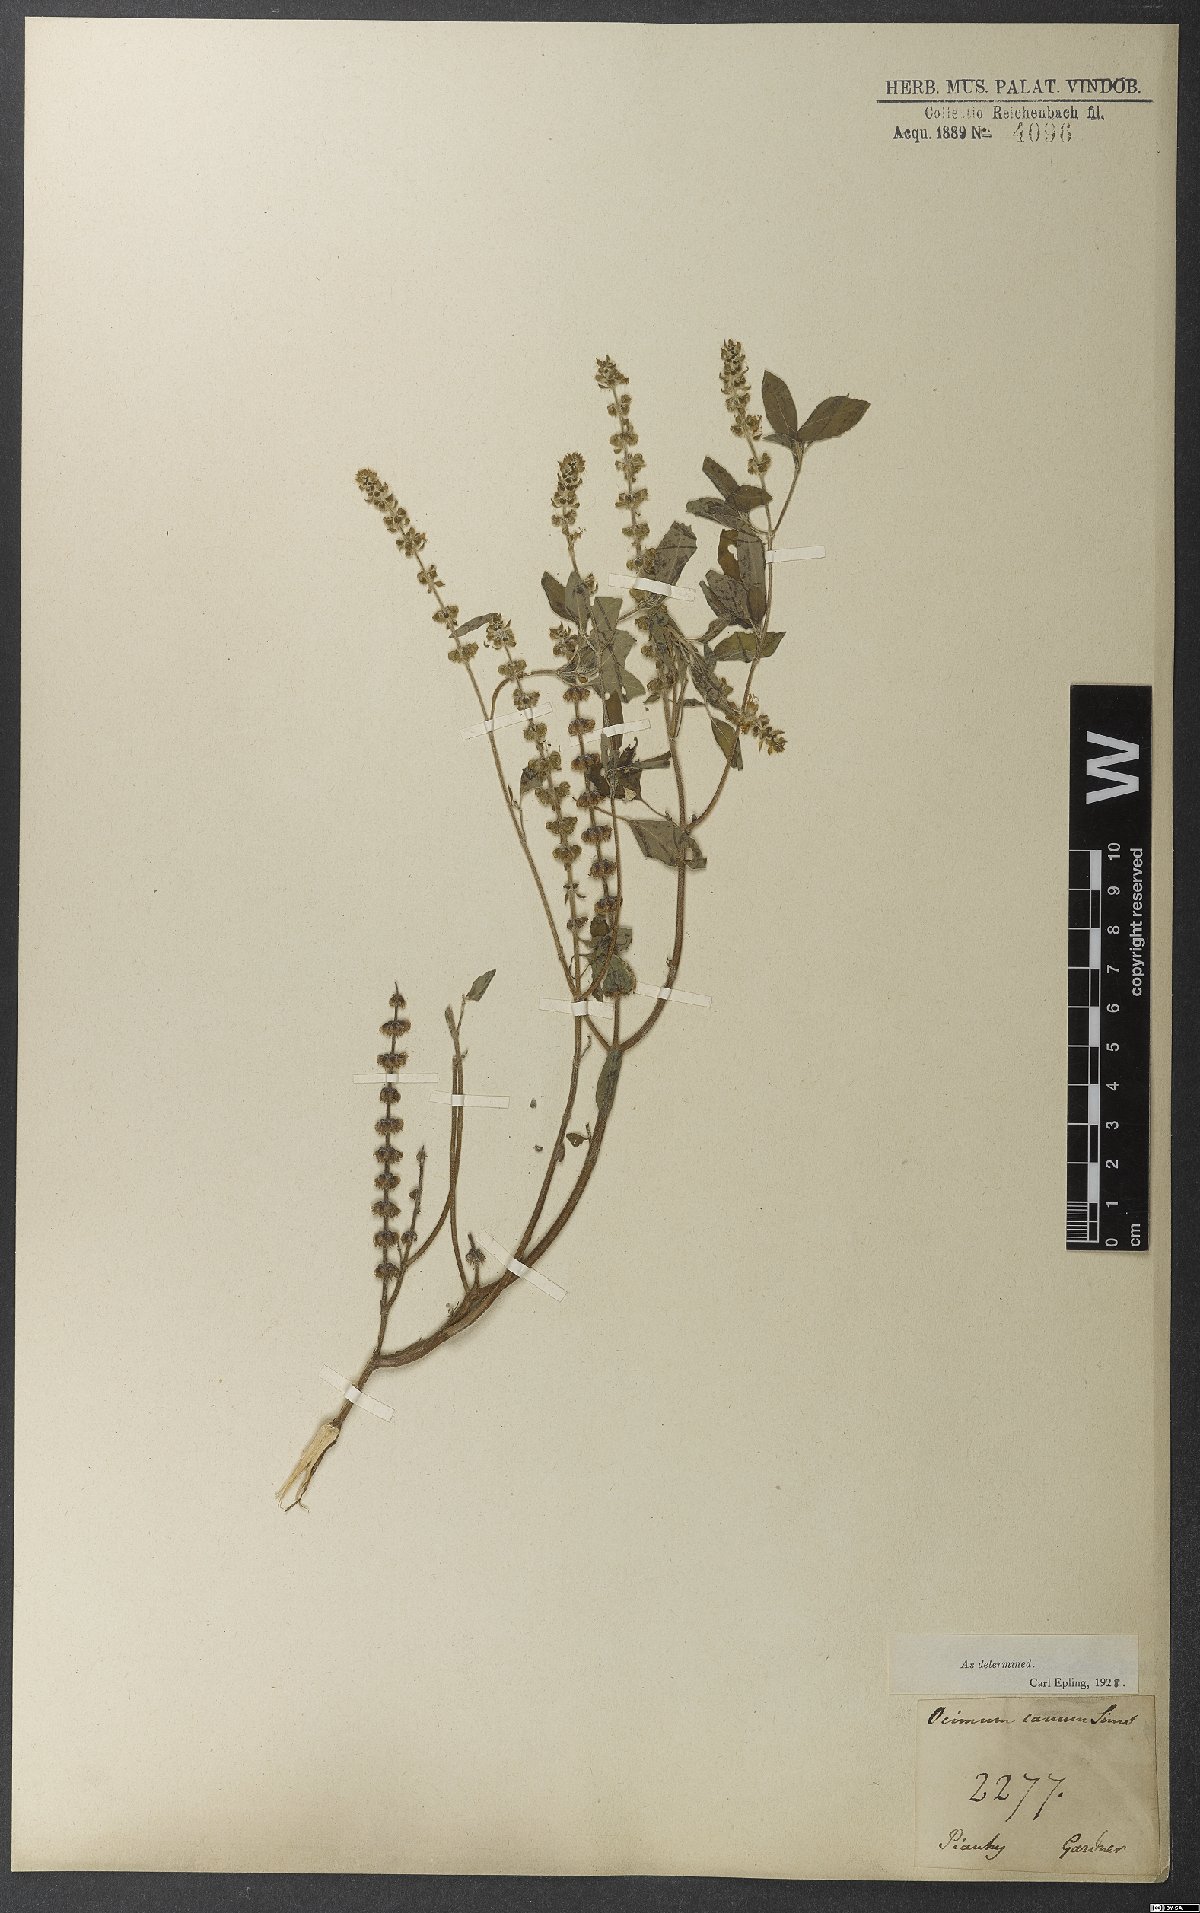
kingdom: Plantae
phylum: Tracheophyta
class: Magnoliopsida
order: Lamiales
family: Lamiaceae
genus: Ocimum
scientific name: Ocimum americanum
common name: American basil
